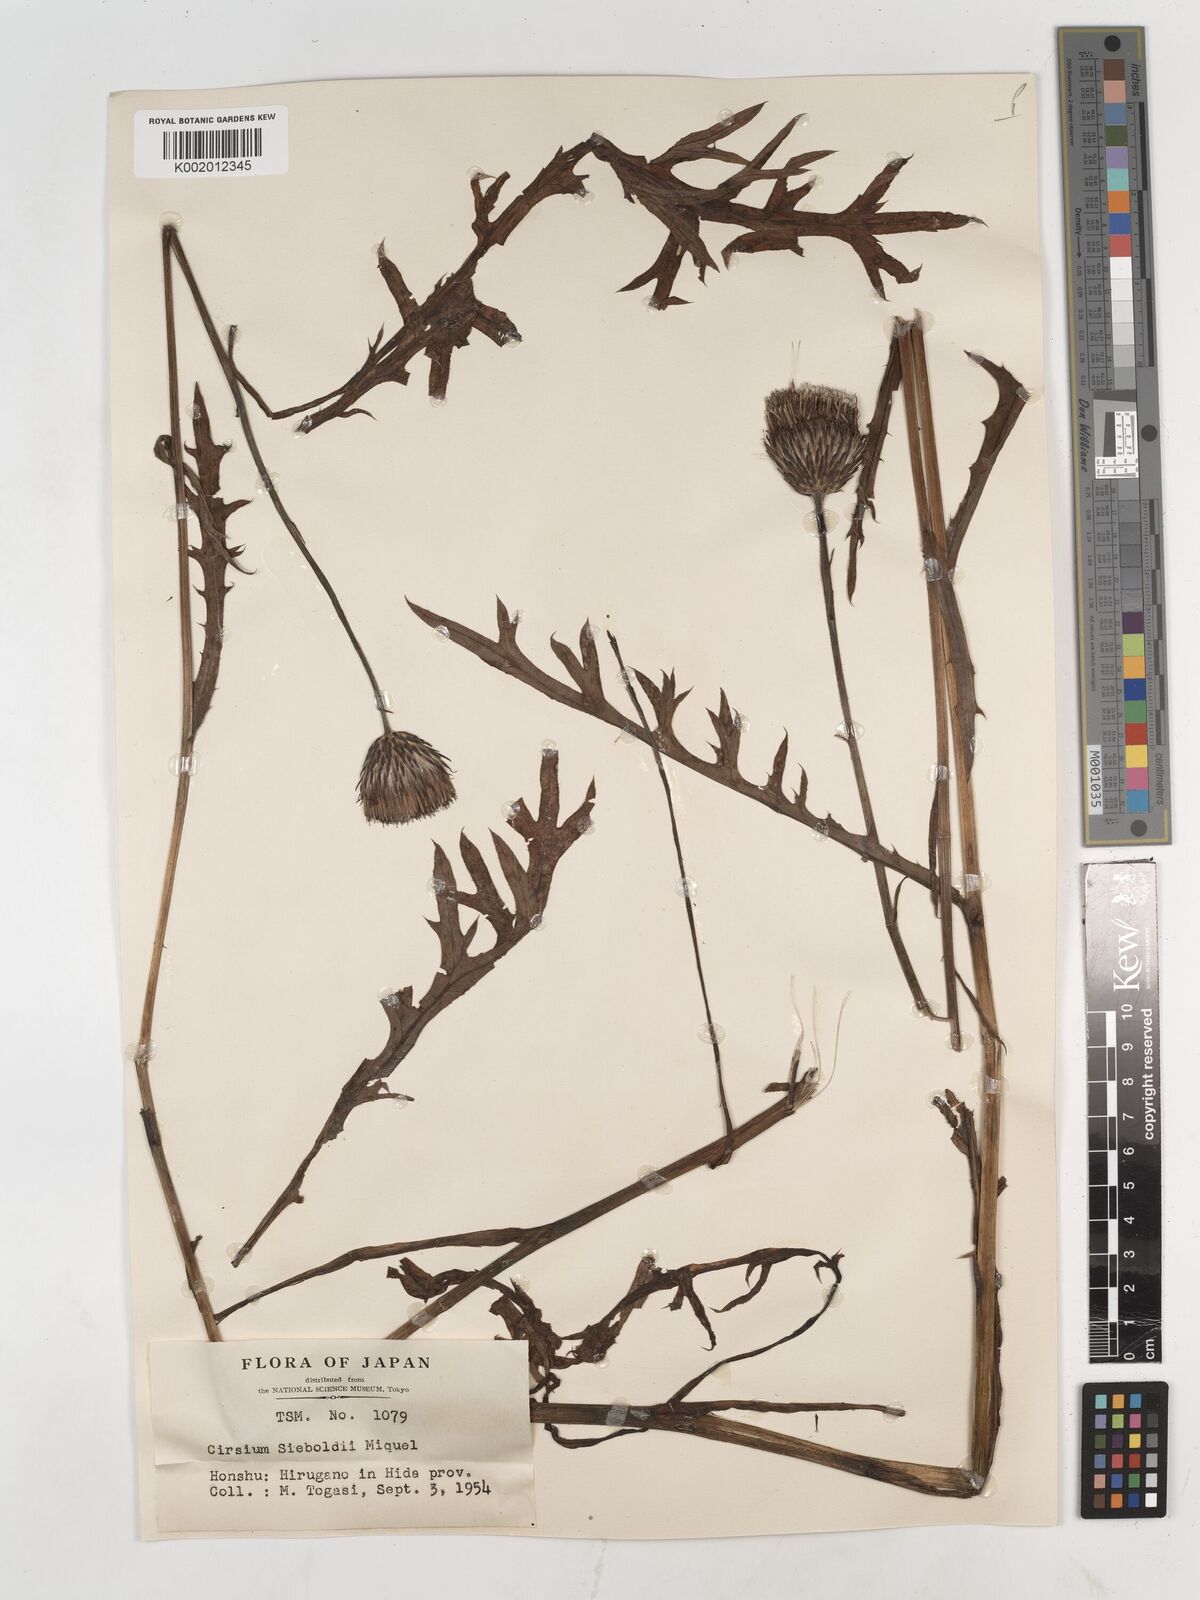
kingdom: Plantae
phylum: Tracheophyta
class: Magnoliopsida
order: Asterales
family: Asteraceae
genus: Cirsium
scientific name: Cirsium sieboldii
